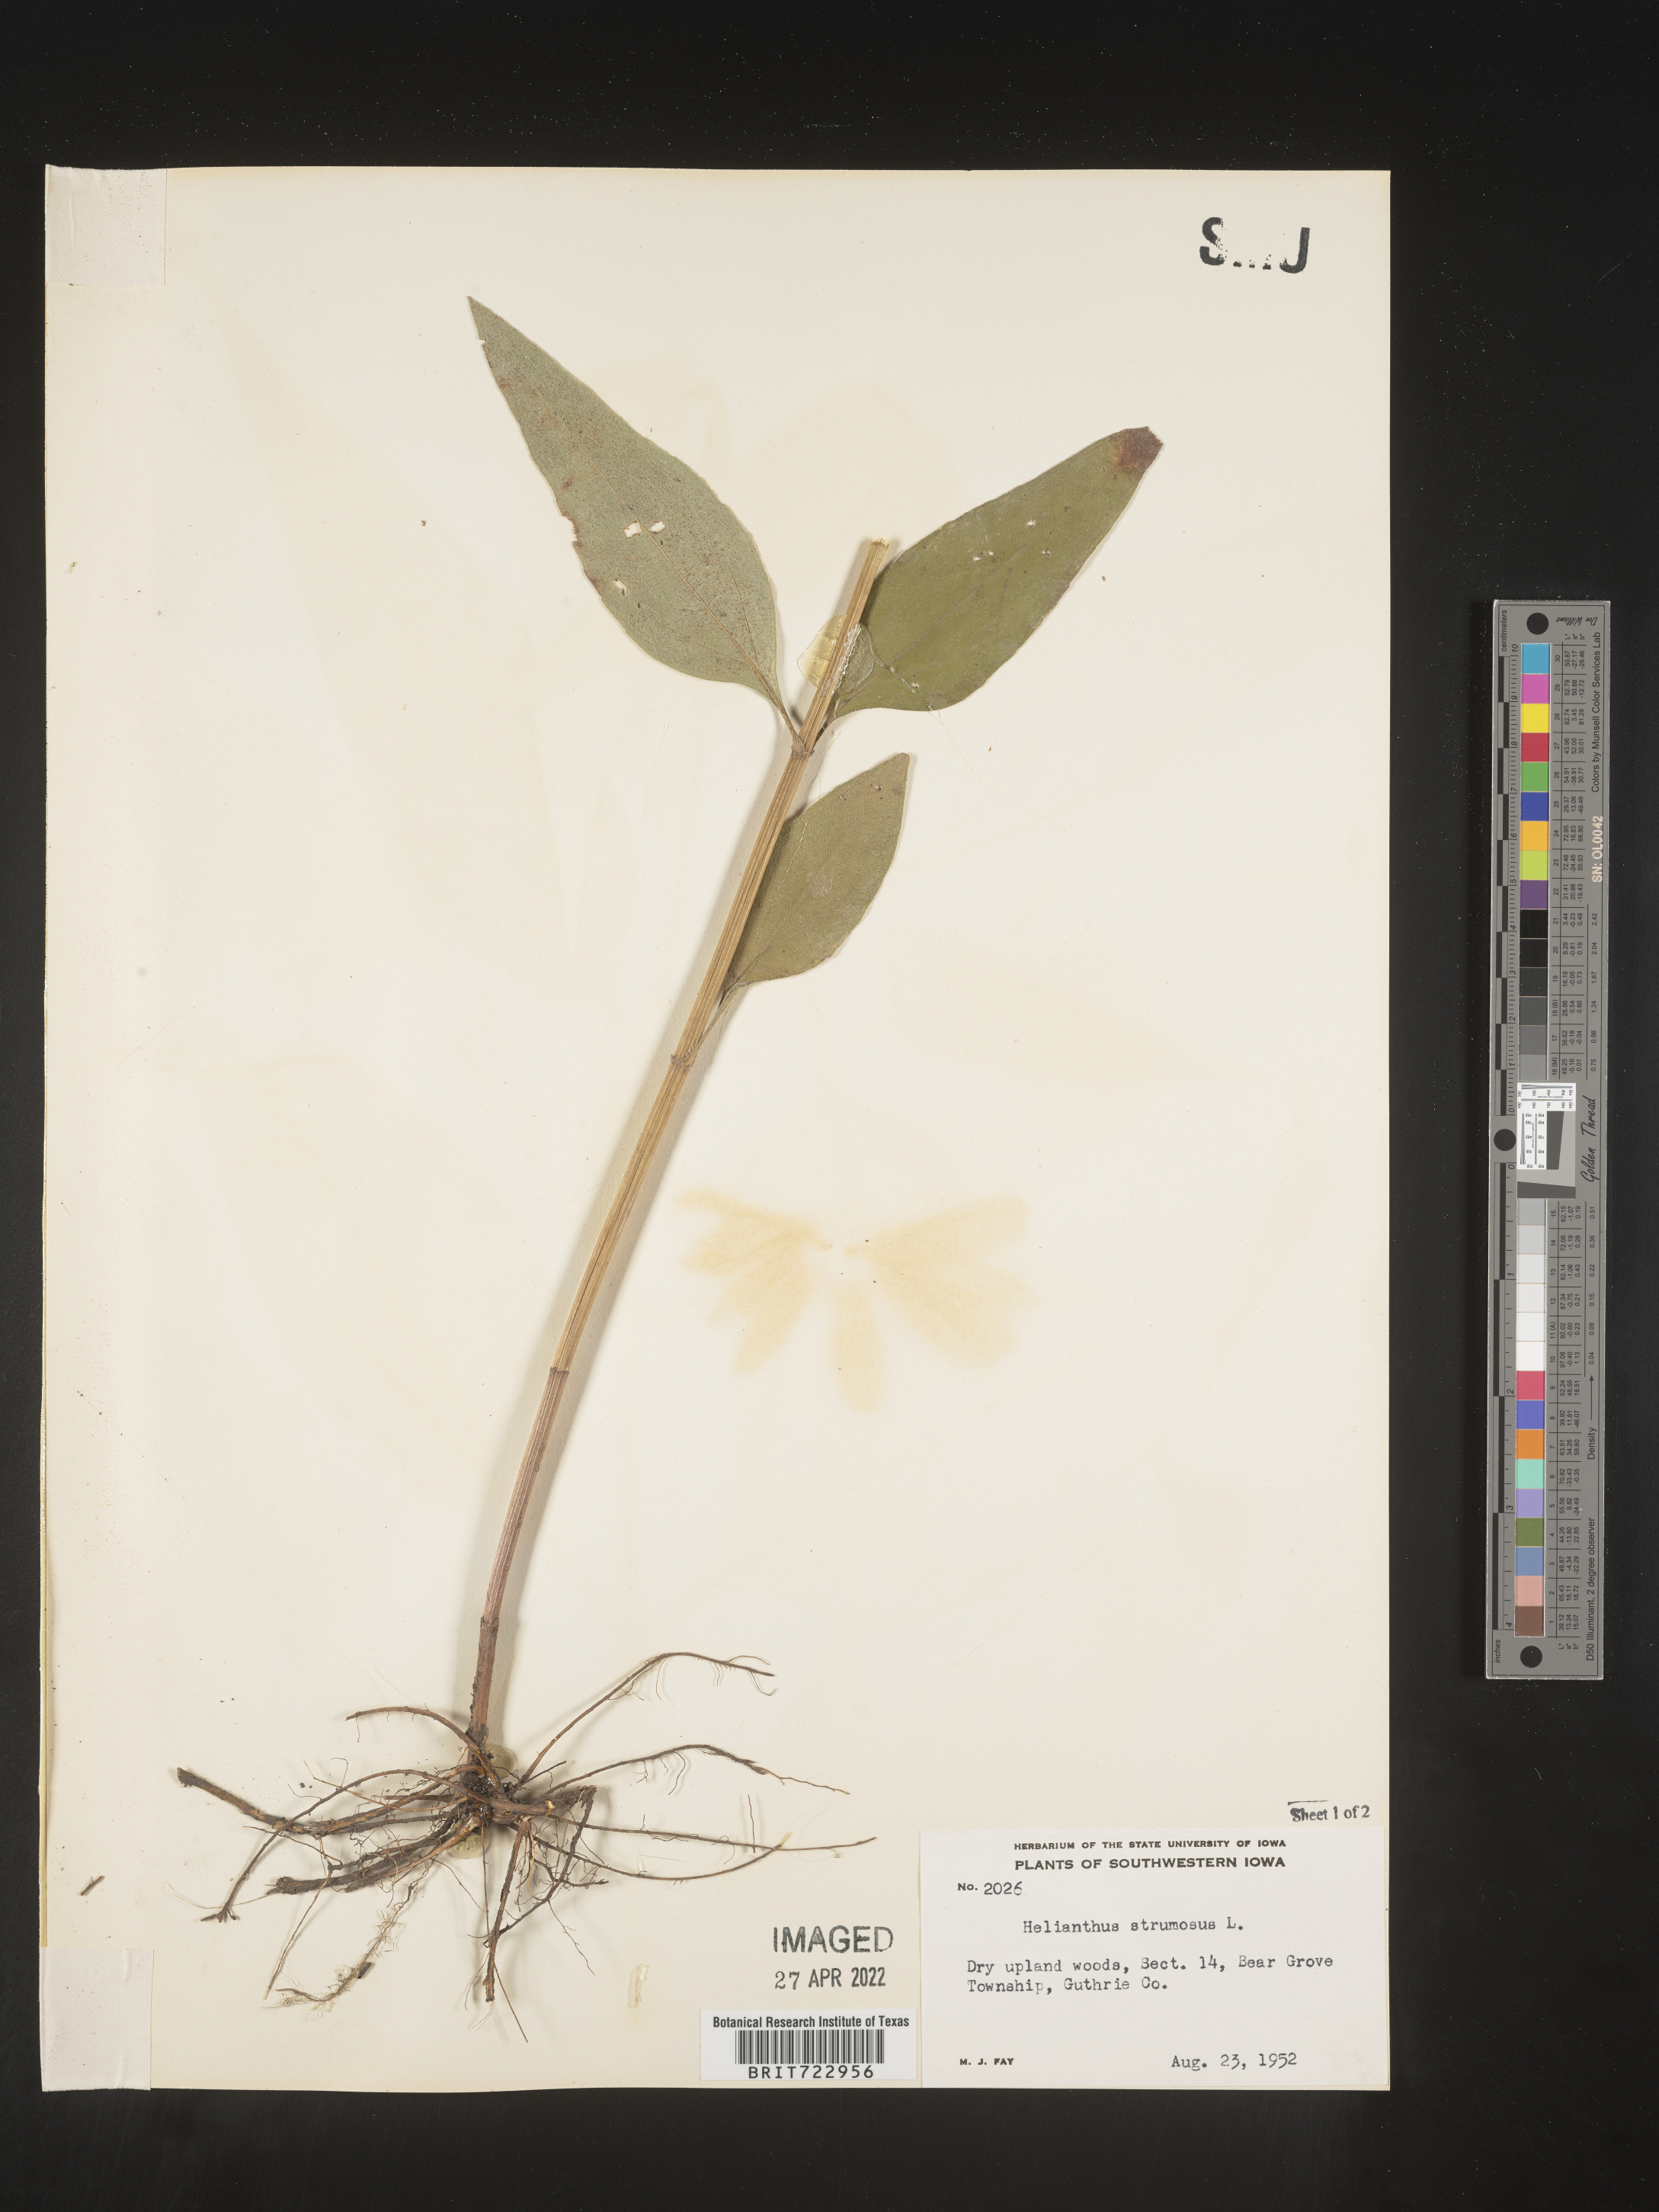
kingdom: Plantae
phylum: Tracheophyta
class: Magnoliopsida
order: Asterales
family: Asteraceae
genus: Helianthus
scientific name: Helianthus strumosus
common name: Pale-leaved sunflower
